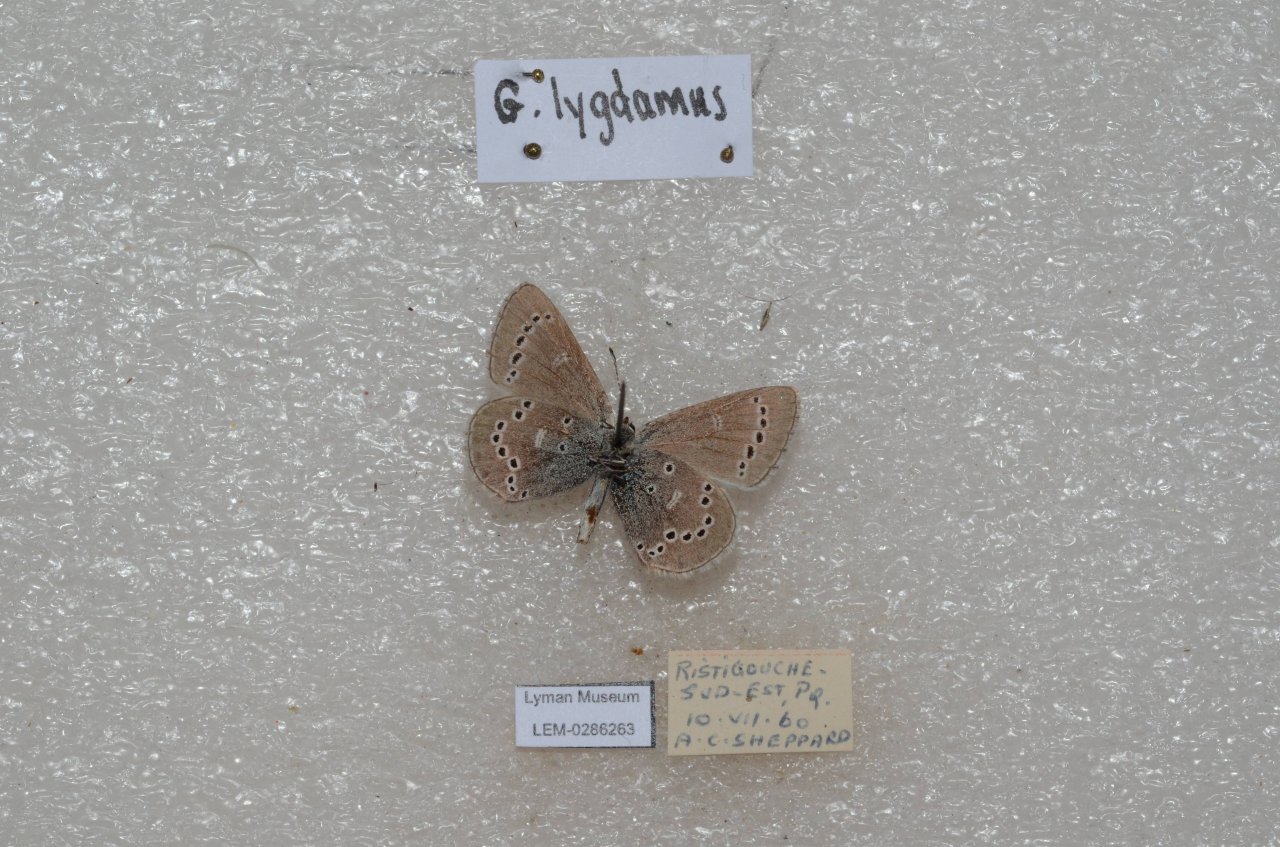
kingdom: Animalia
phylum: Arthropoda
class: Insecta
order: Lepidoptera
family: Lycaenidae
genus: Glaucopsyche
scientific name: Glaucopsyche lygdamus
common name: Silvery Blue
